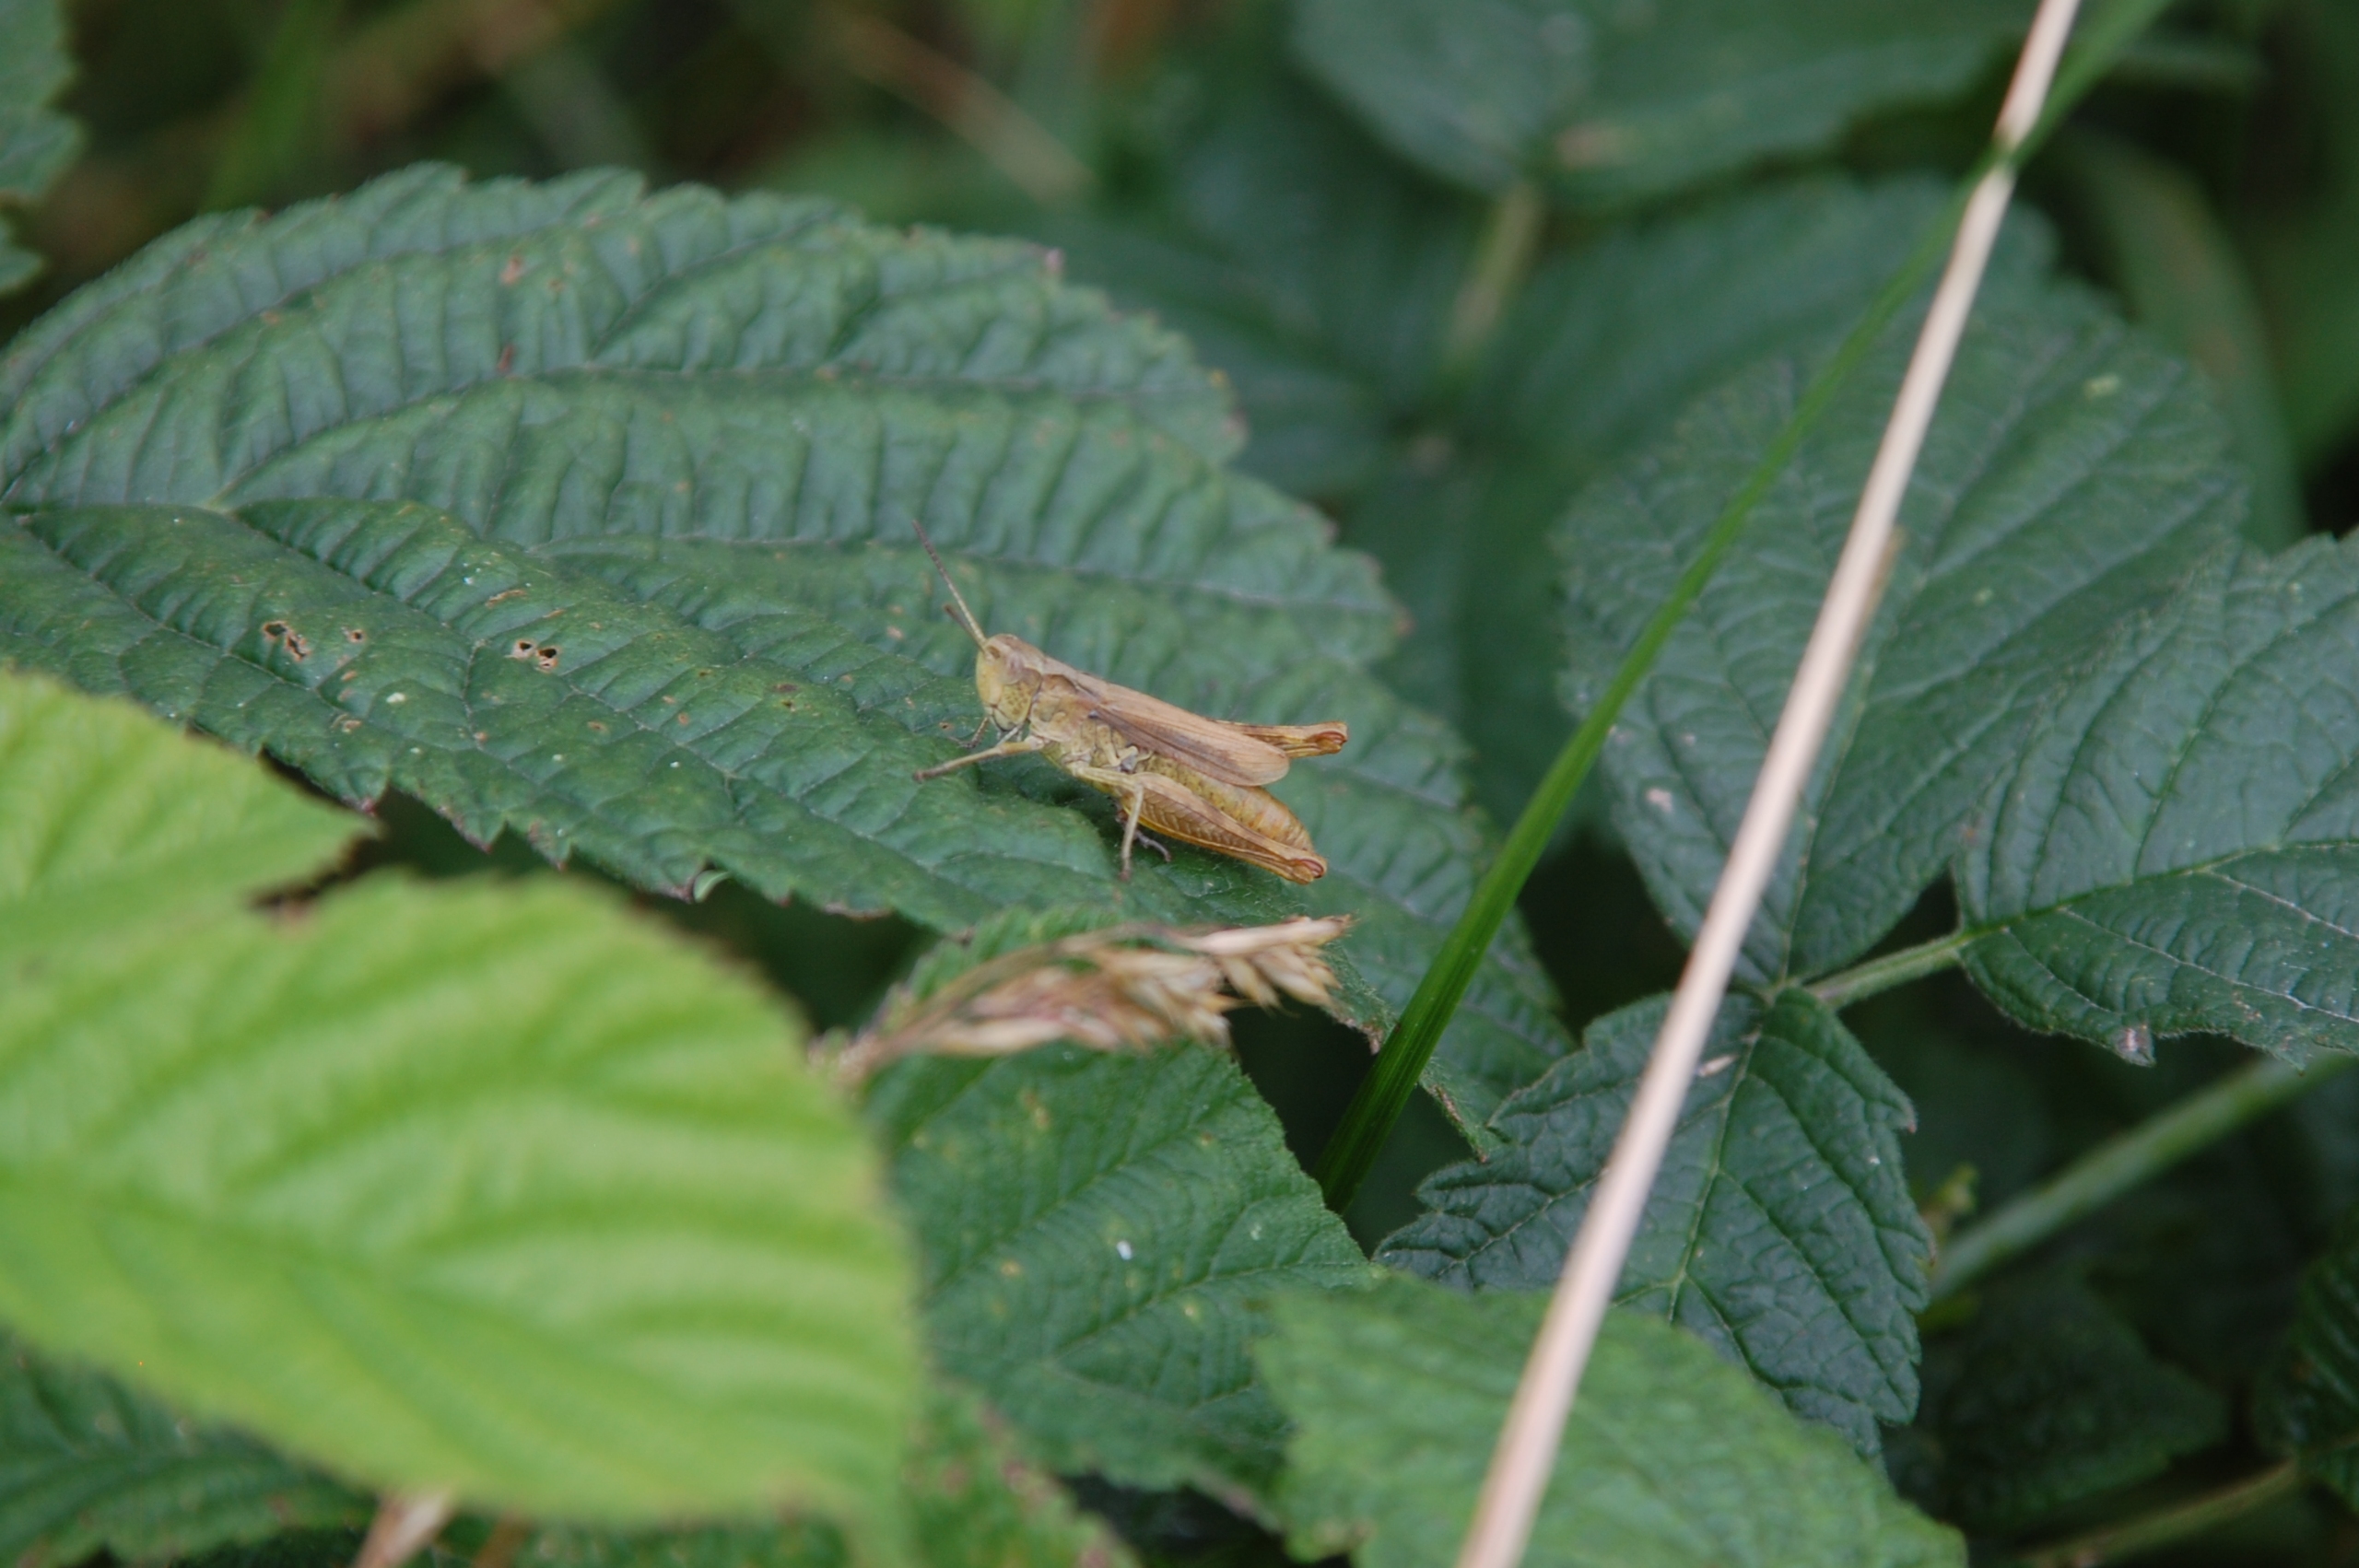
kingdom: Animalia
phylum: Arthropoda
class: Insecta
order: Orthoptera
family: Acrididae
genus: Chorthippus
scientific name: Chorthippus apricarius
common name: Solgræshoppe
